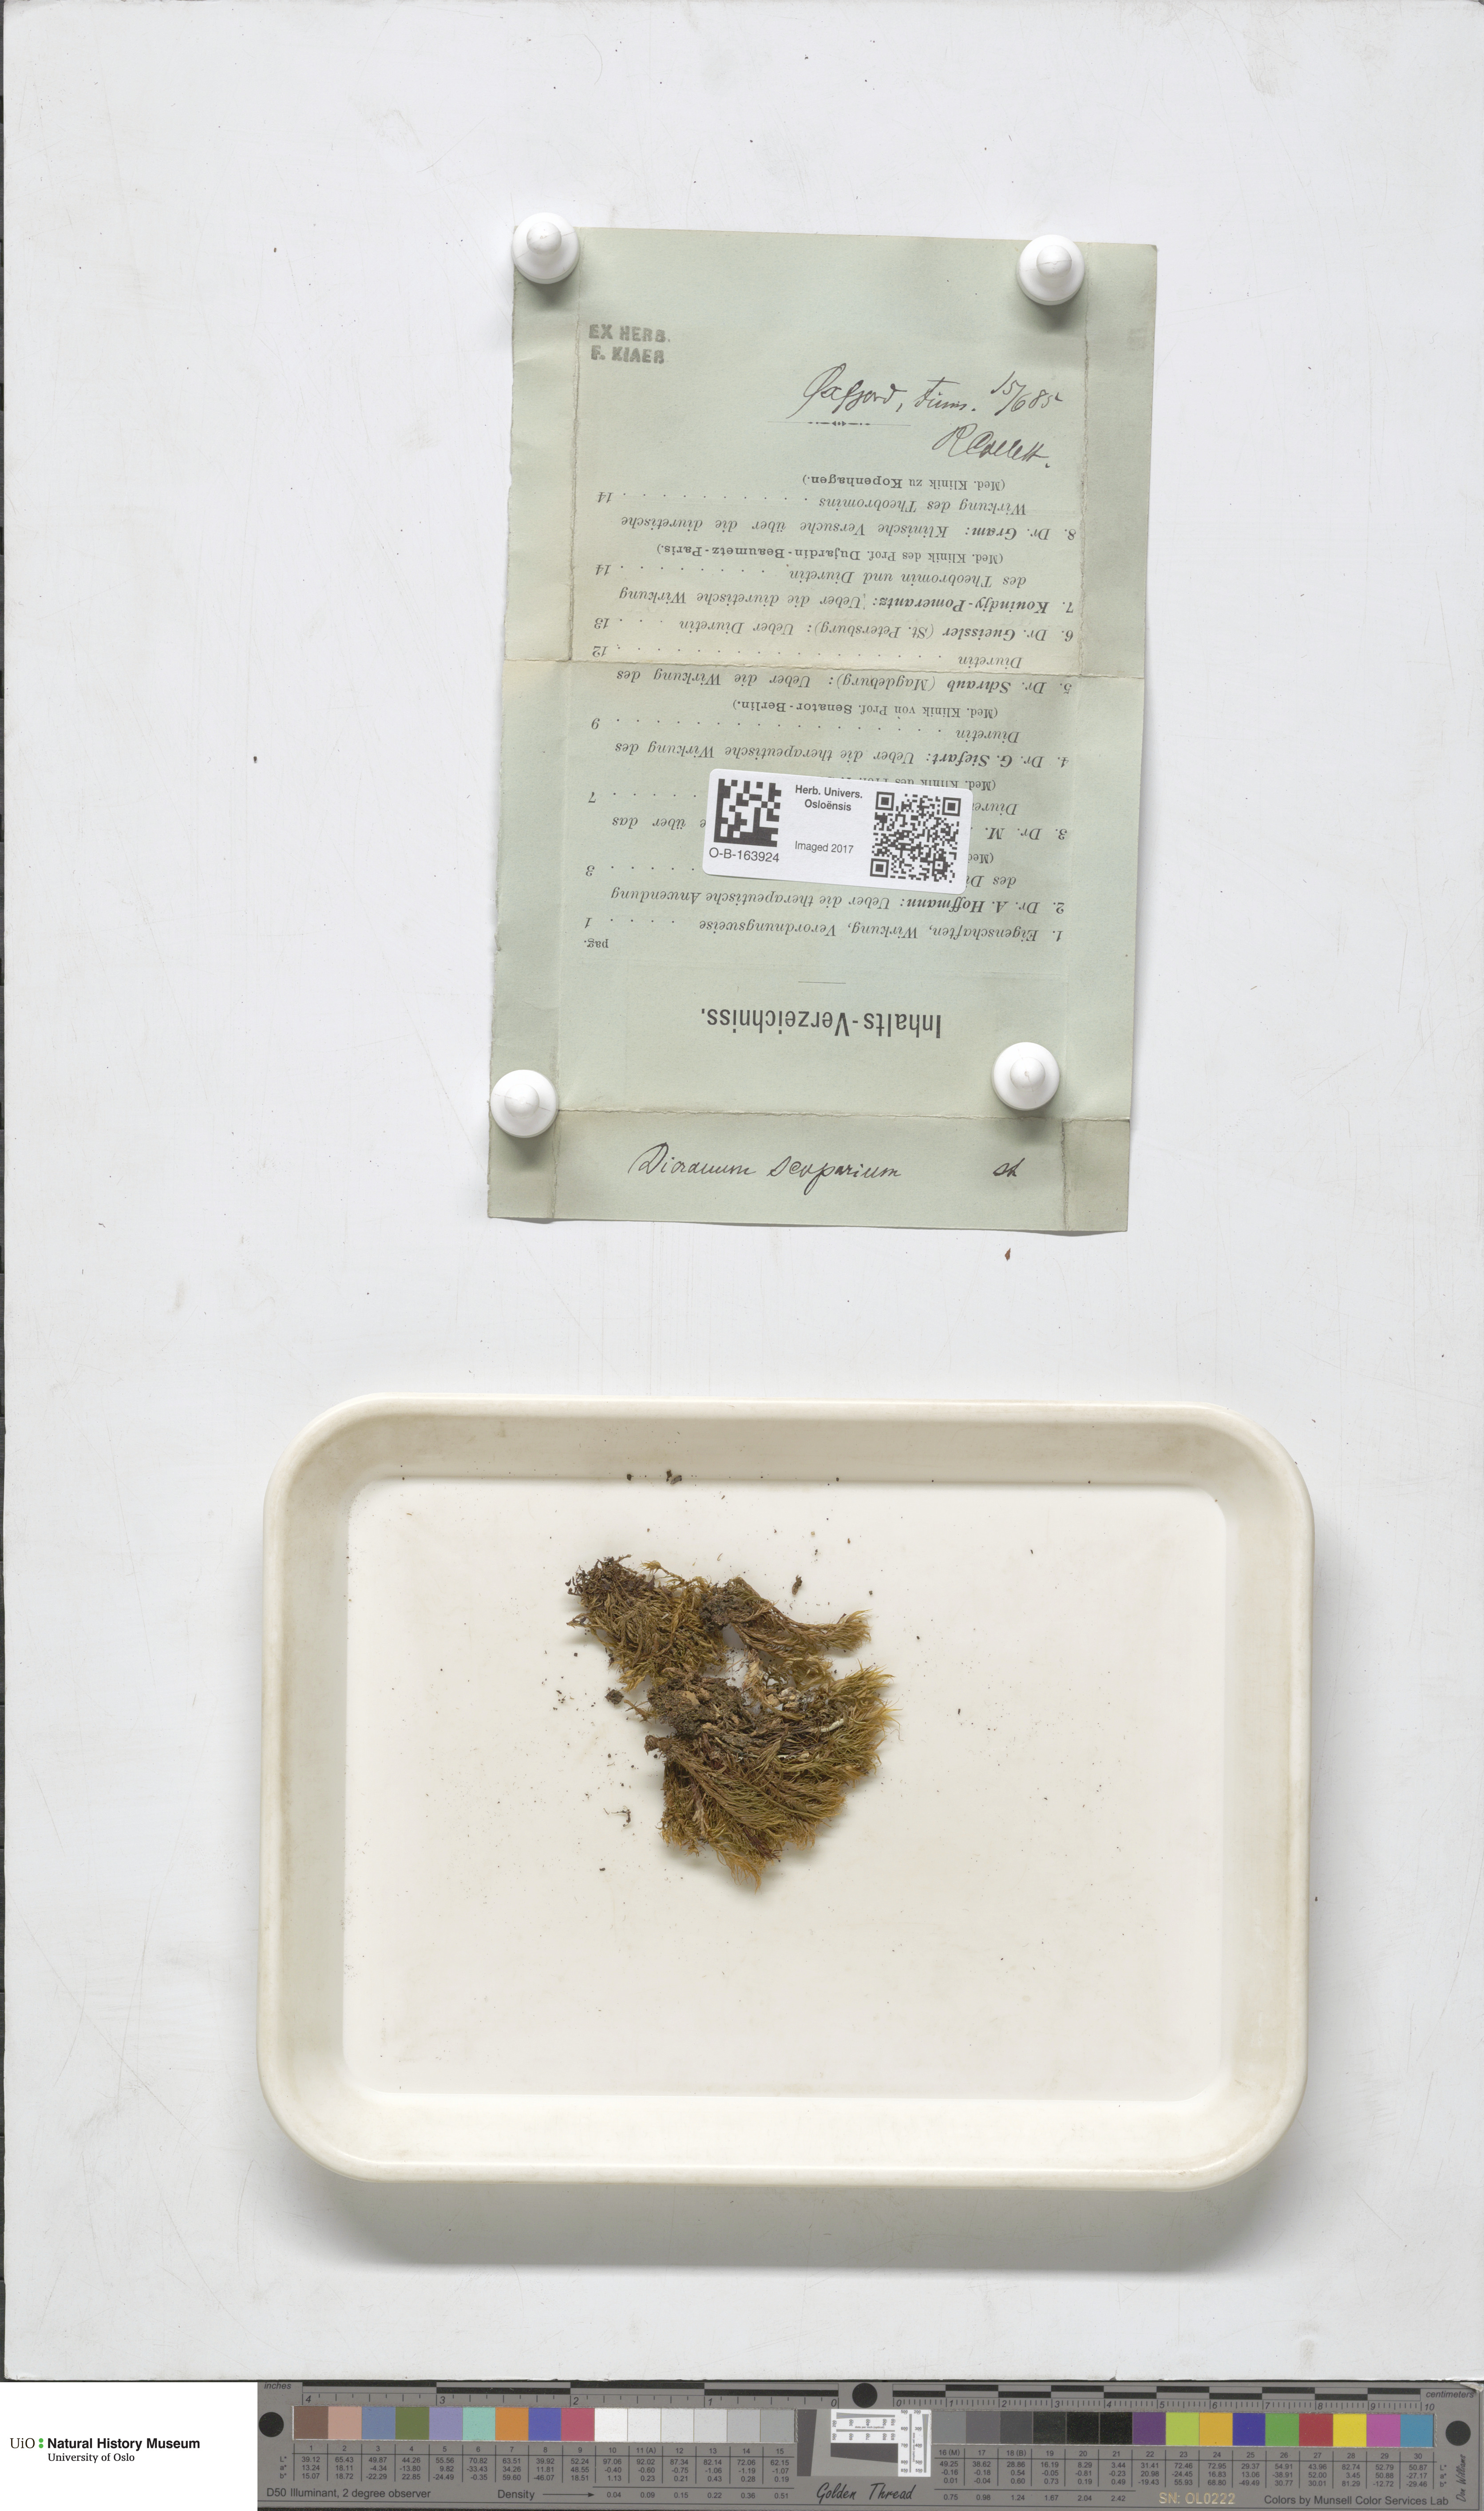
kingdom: Plantae
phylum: Bryophyta
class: Bryopsida
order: Dicranales
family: Dicranaceae
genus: Dicranum
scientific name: Dicranum scoparium
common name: Broom fork-moss
